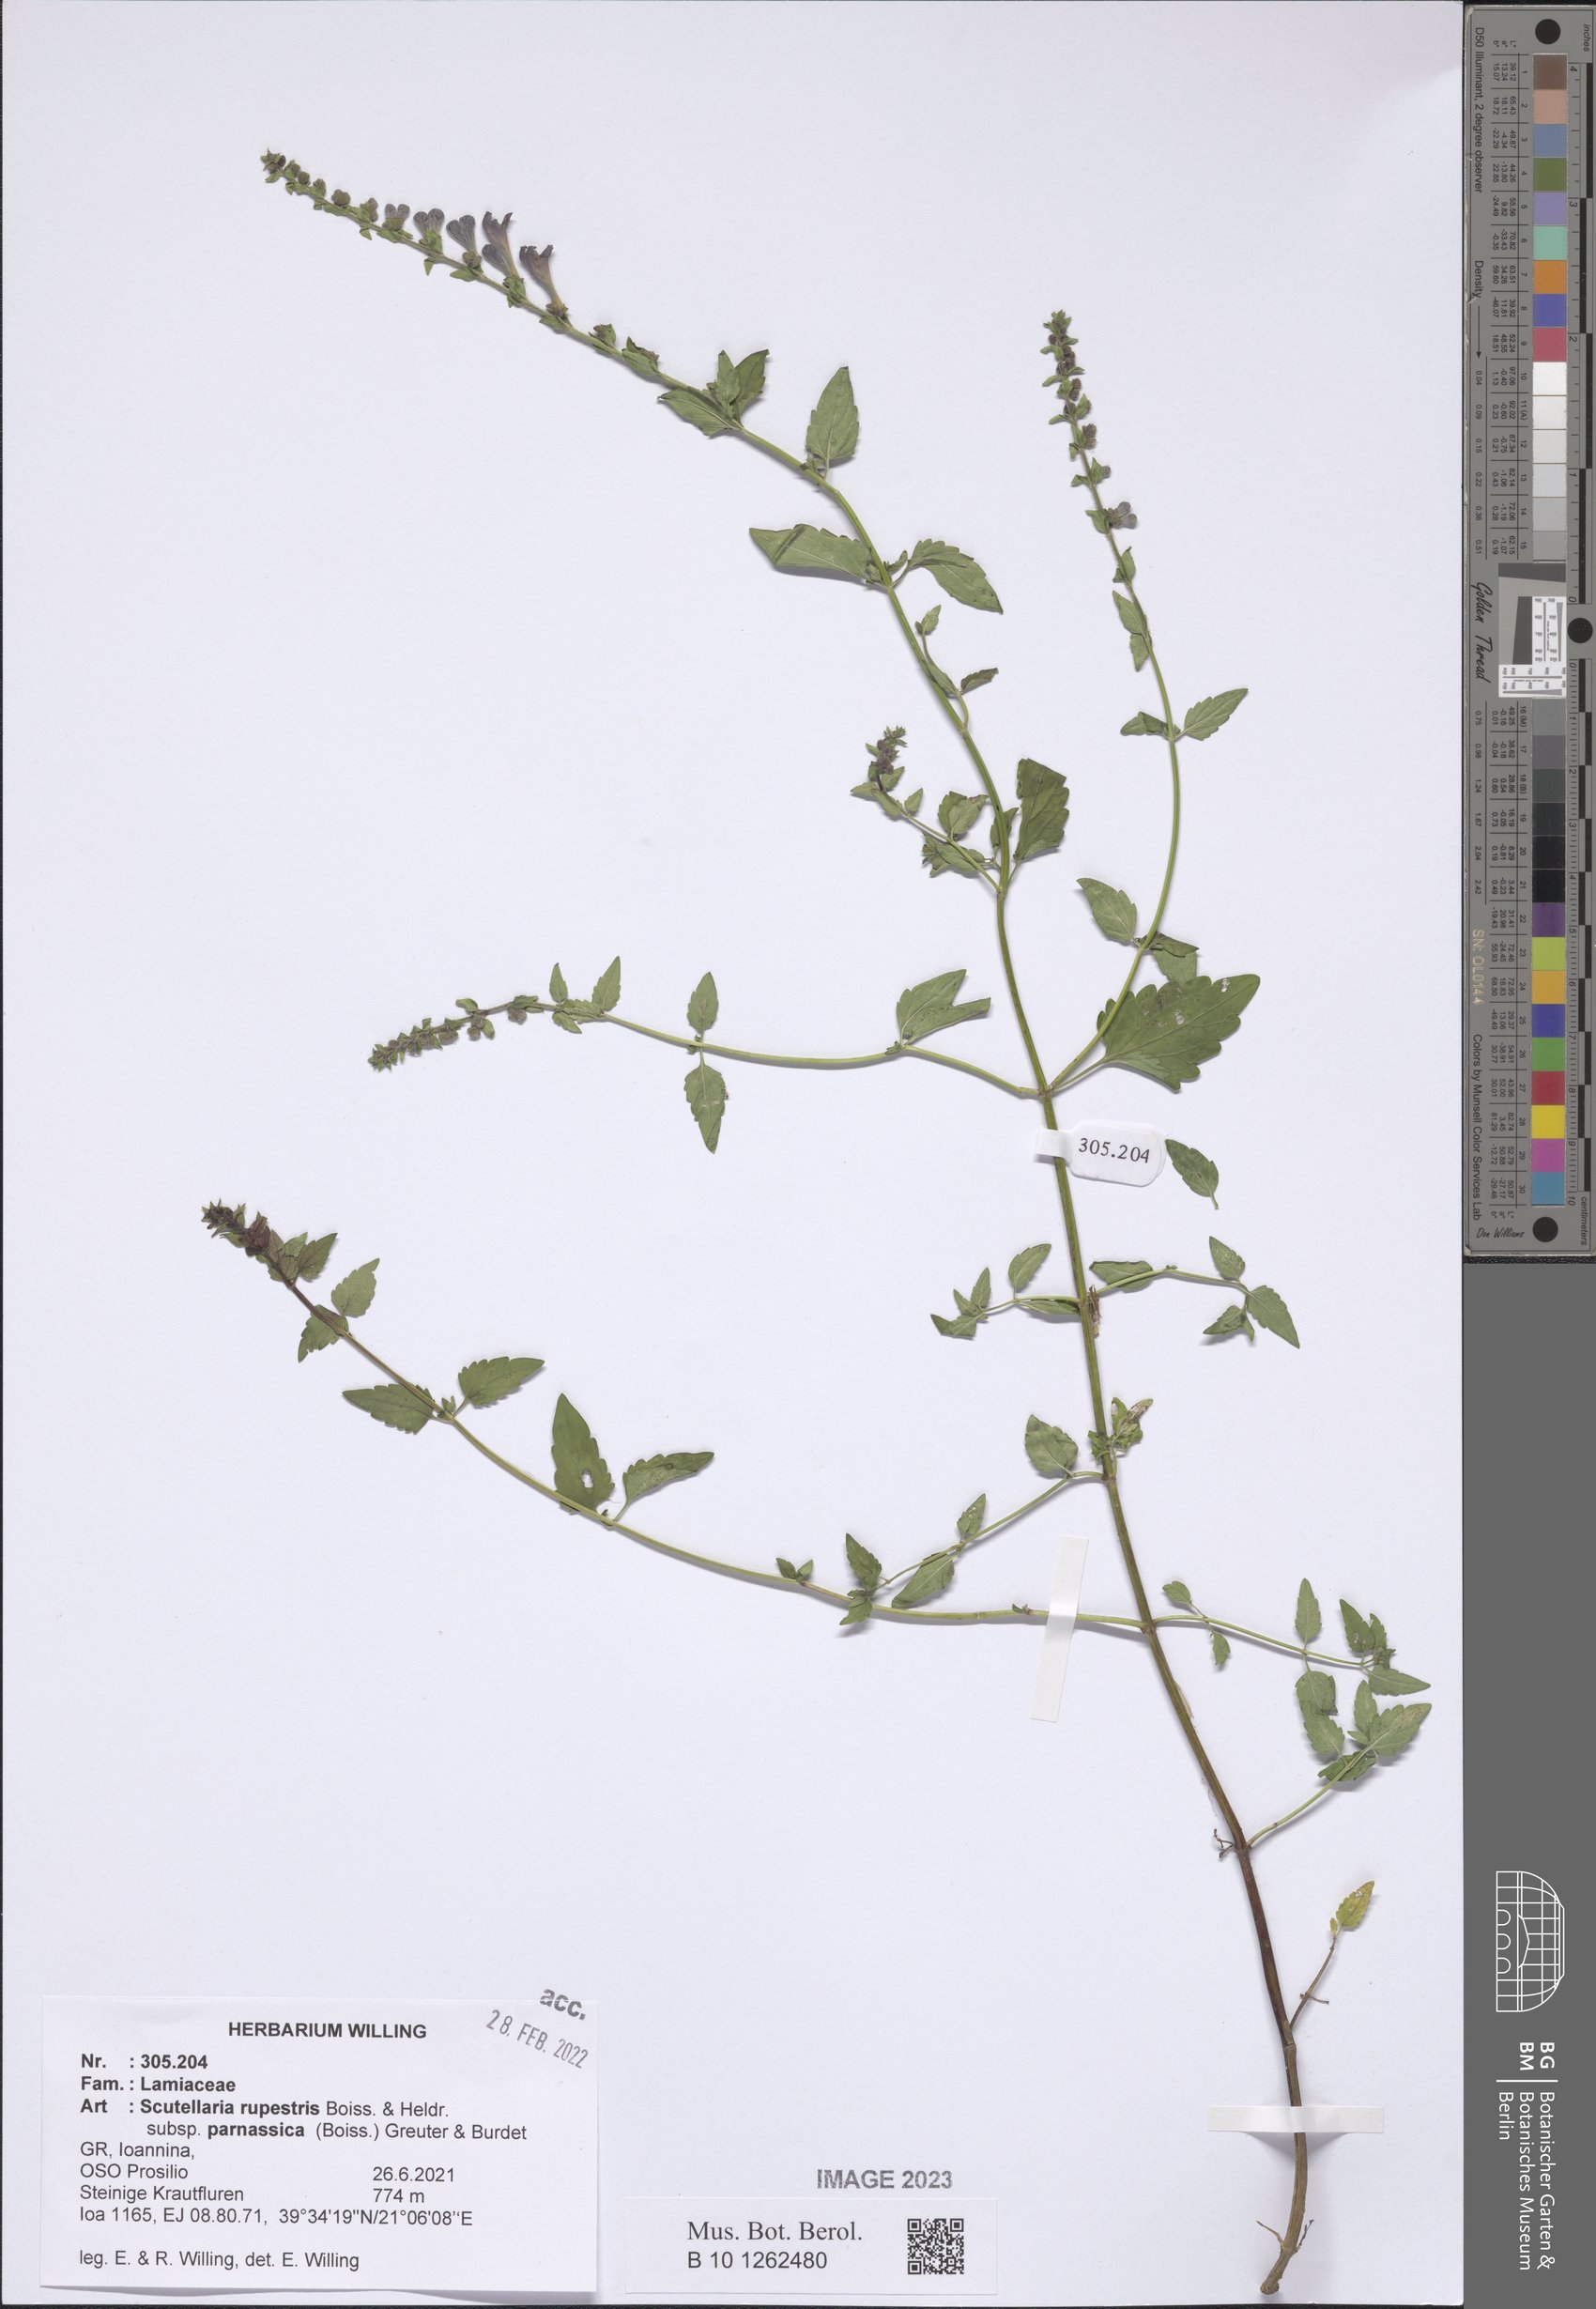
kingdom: Plantae
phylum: Tracheophyta
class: Magnoliopsida
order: Lamiales
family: Lamiaceae
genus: Scutellaria
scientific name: Scutellaria rupestris
